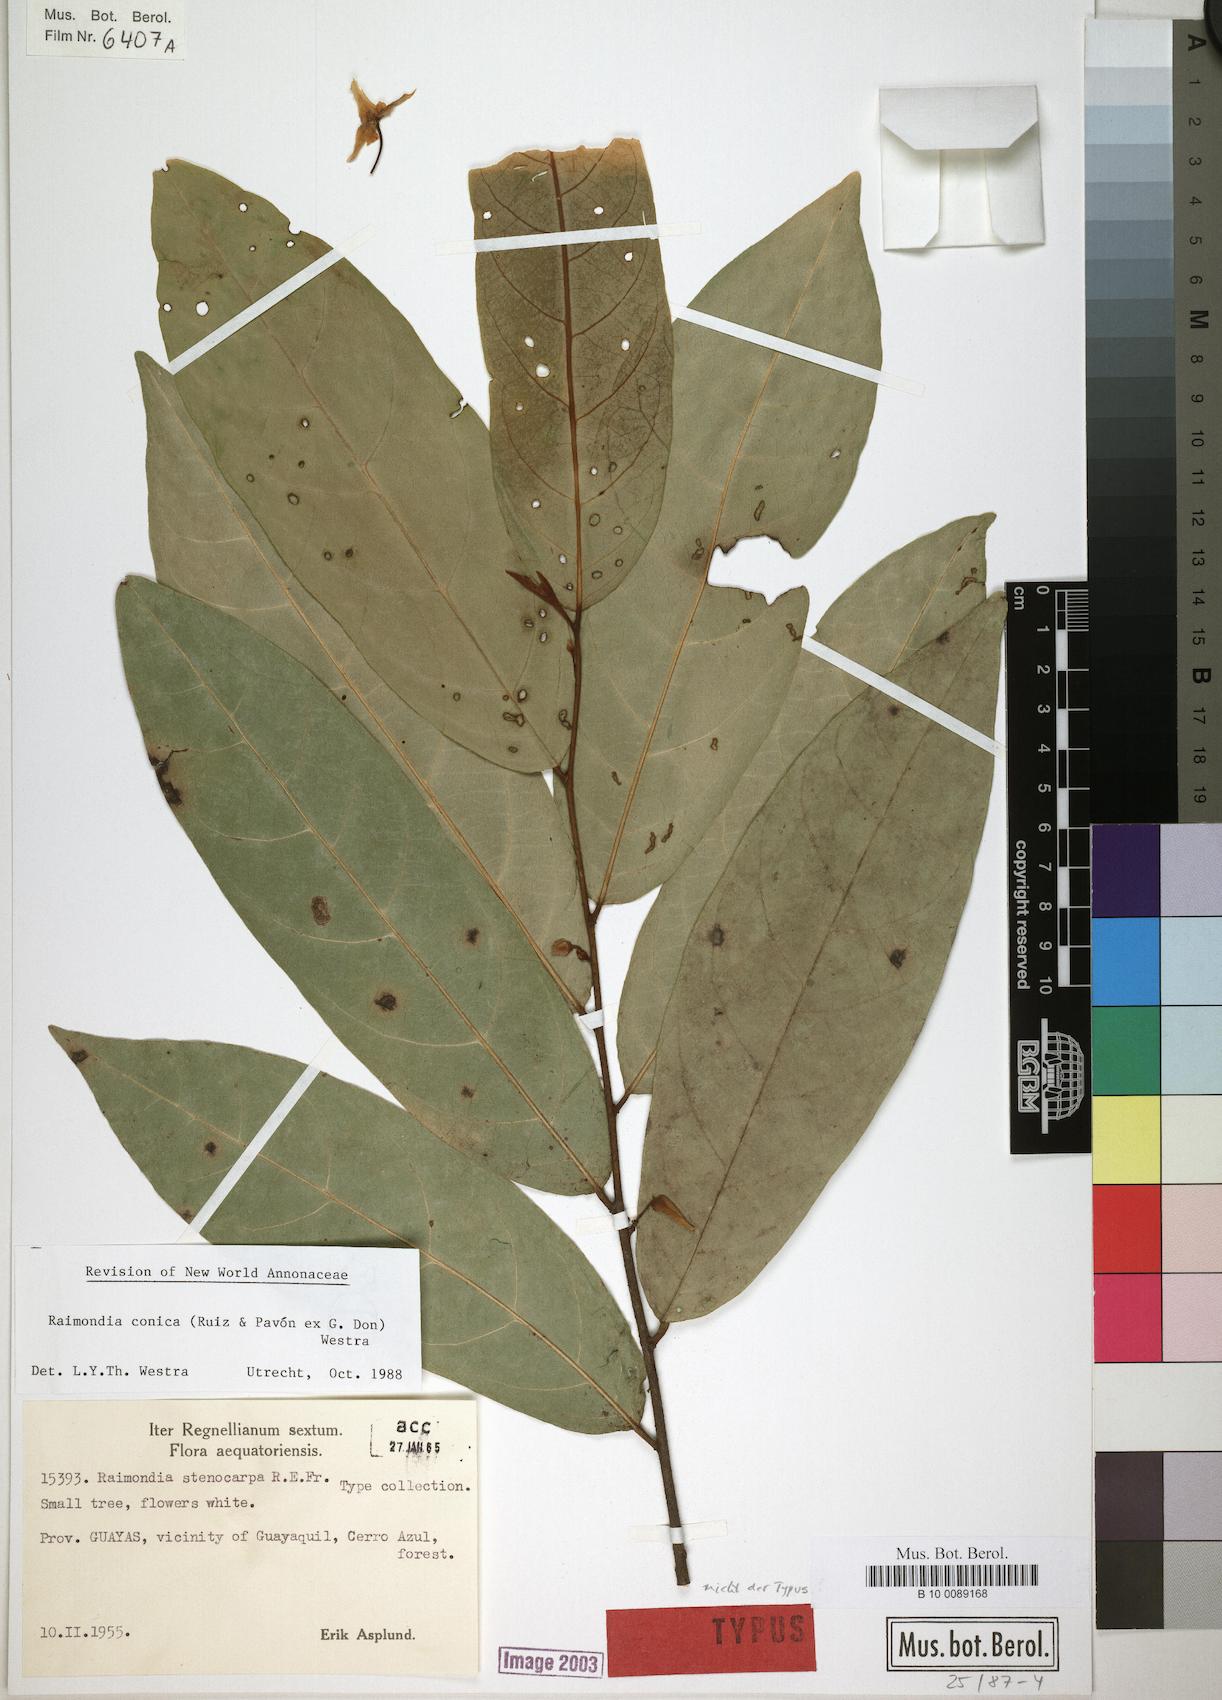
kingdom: Plantae
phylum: Tracheophyta
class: Magnoliopsida
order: Magnoliales
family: Annonaceae
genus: Annona
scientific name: Annona conica
